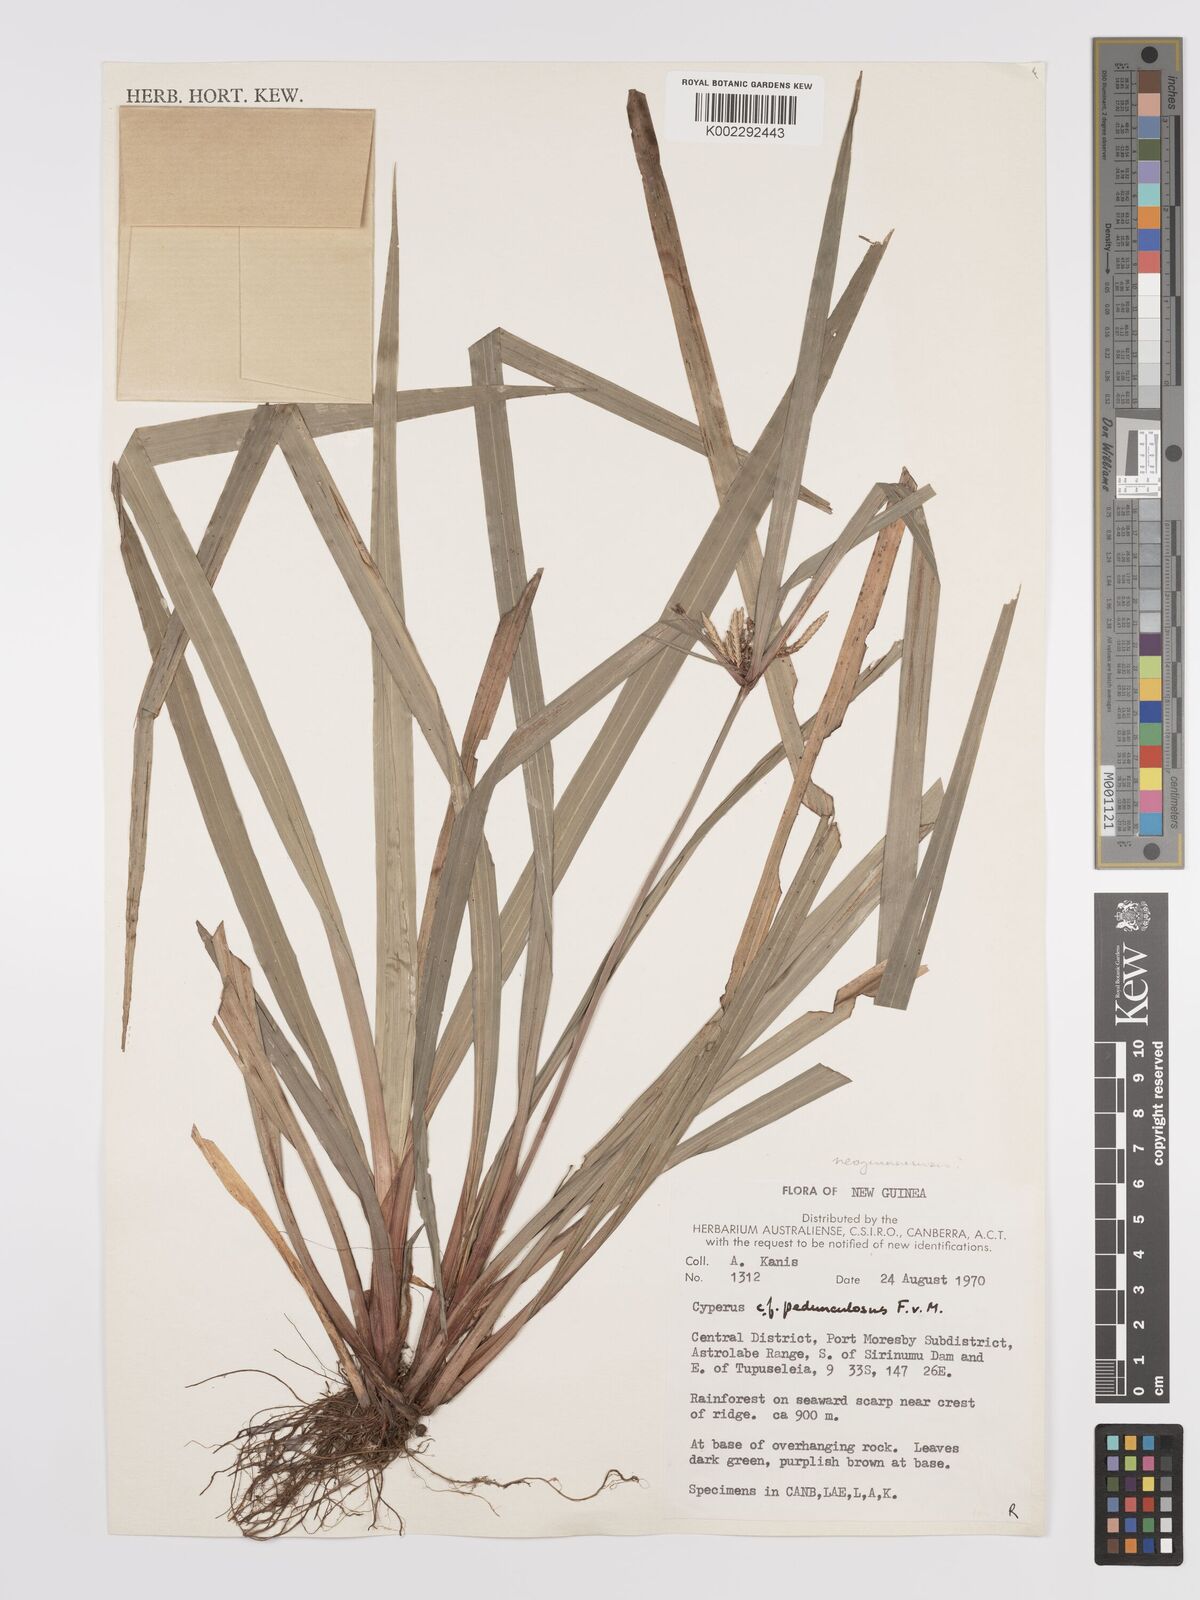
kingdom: Plantae
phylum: Tracheophyta
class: Liliopsida
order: Poales
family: Cyperaceae
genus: Cyperus
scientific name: Cyperus pedunculosus
